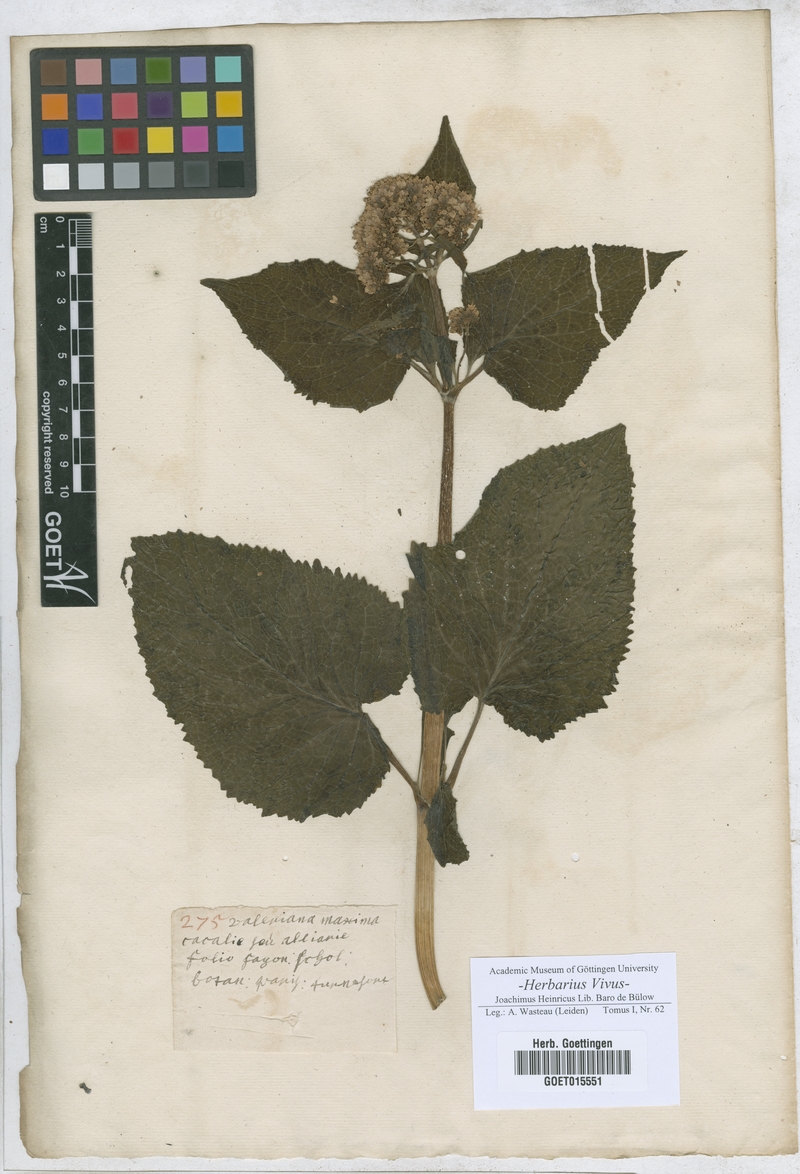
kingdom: Plantae
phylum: Tracheophyta
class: Magnoliopsida
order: Dipsacales
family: Caprifoliaceae
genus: Valeriana
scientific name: Valeriana
